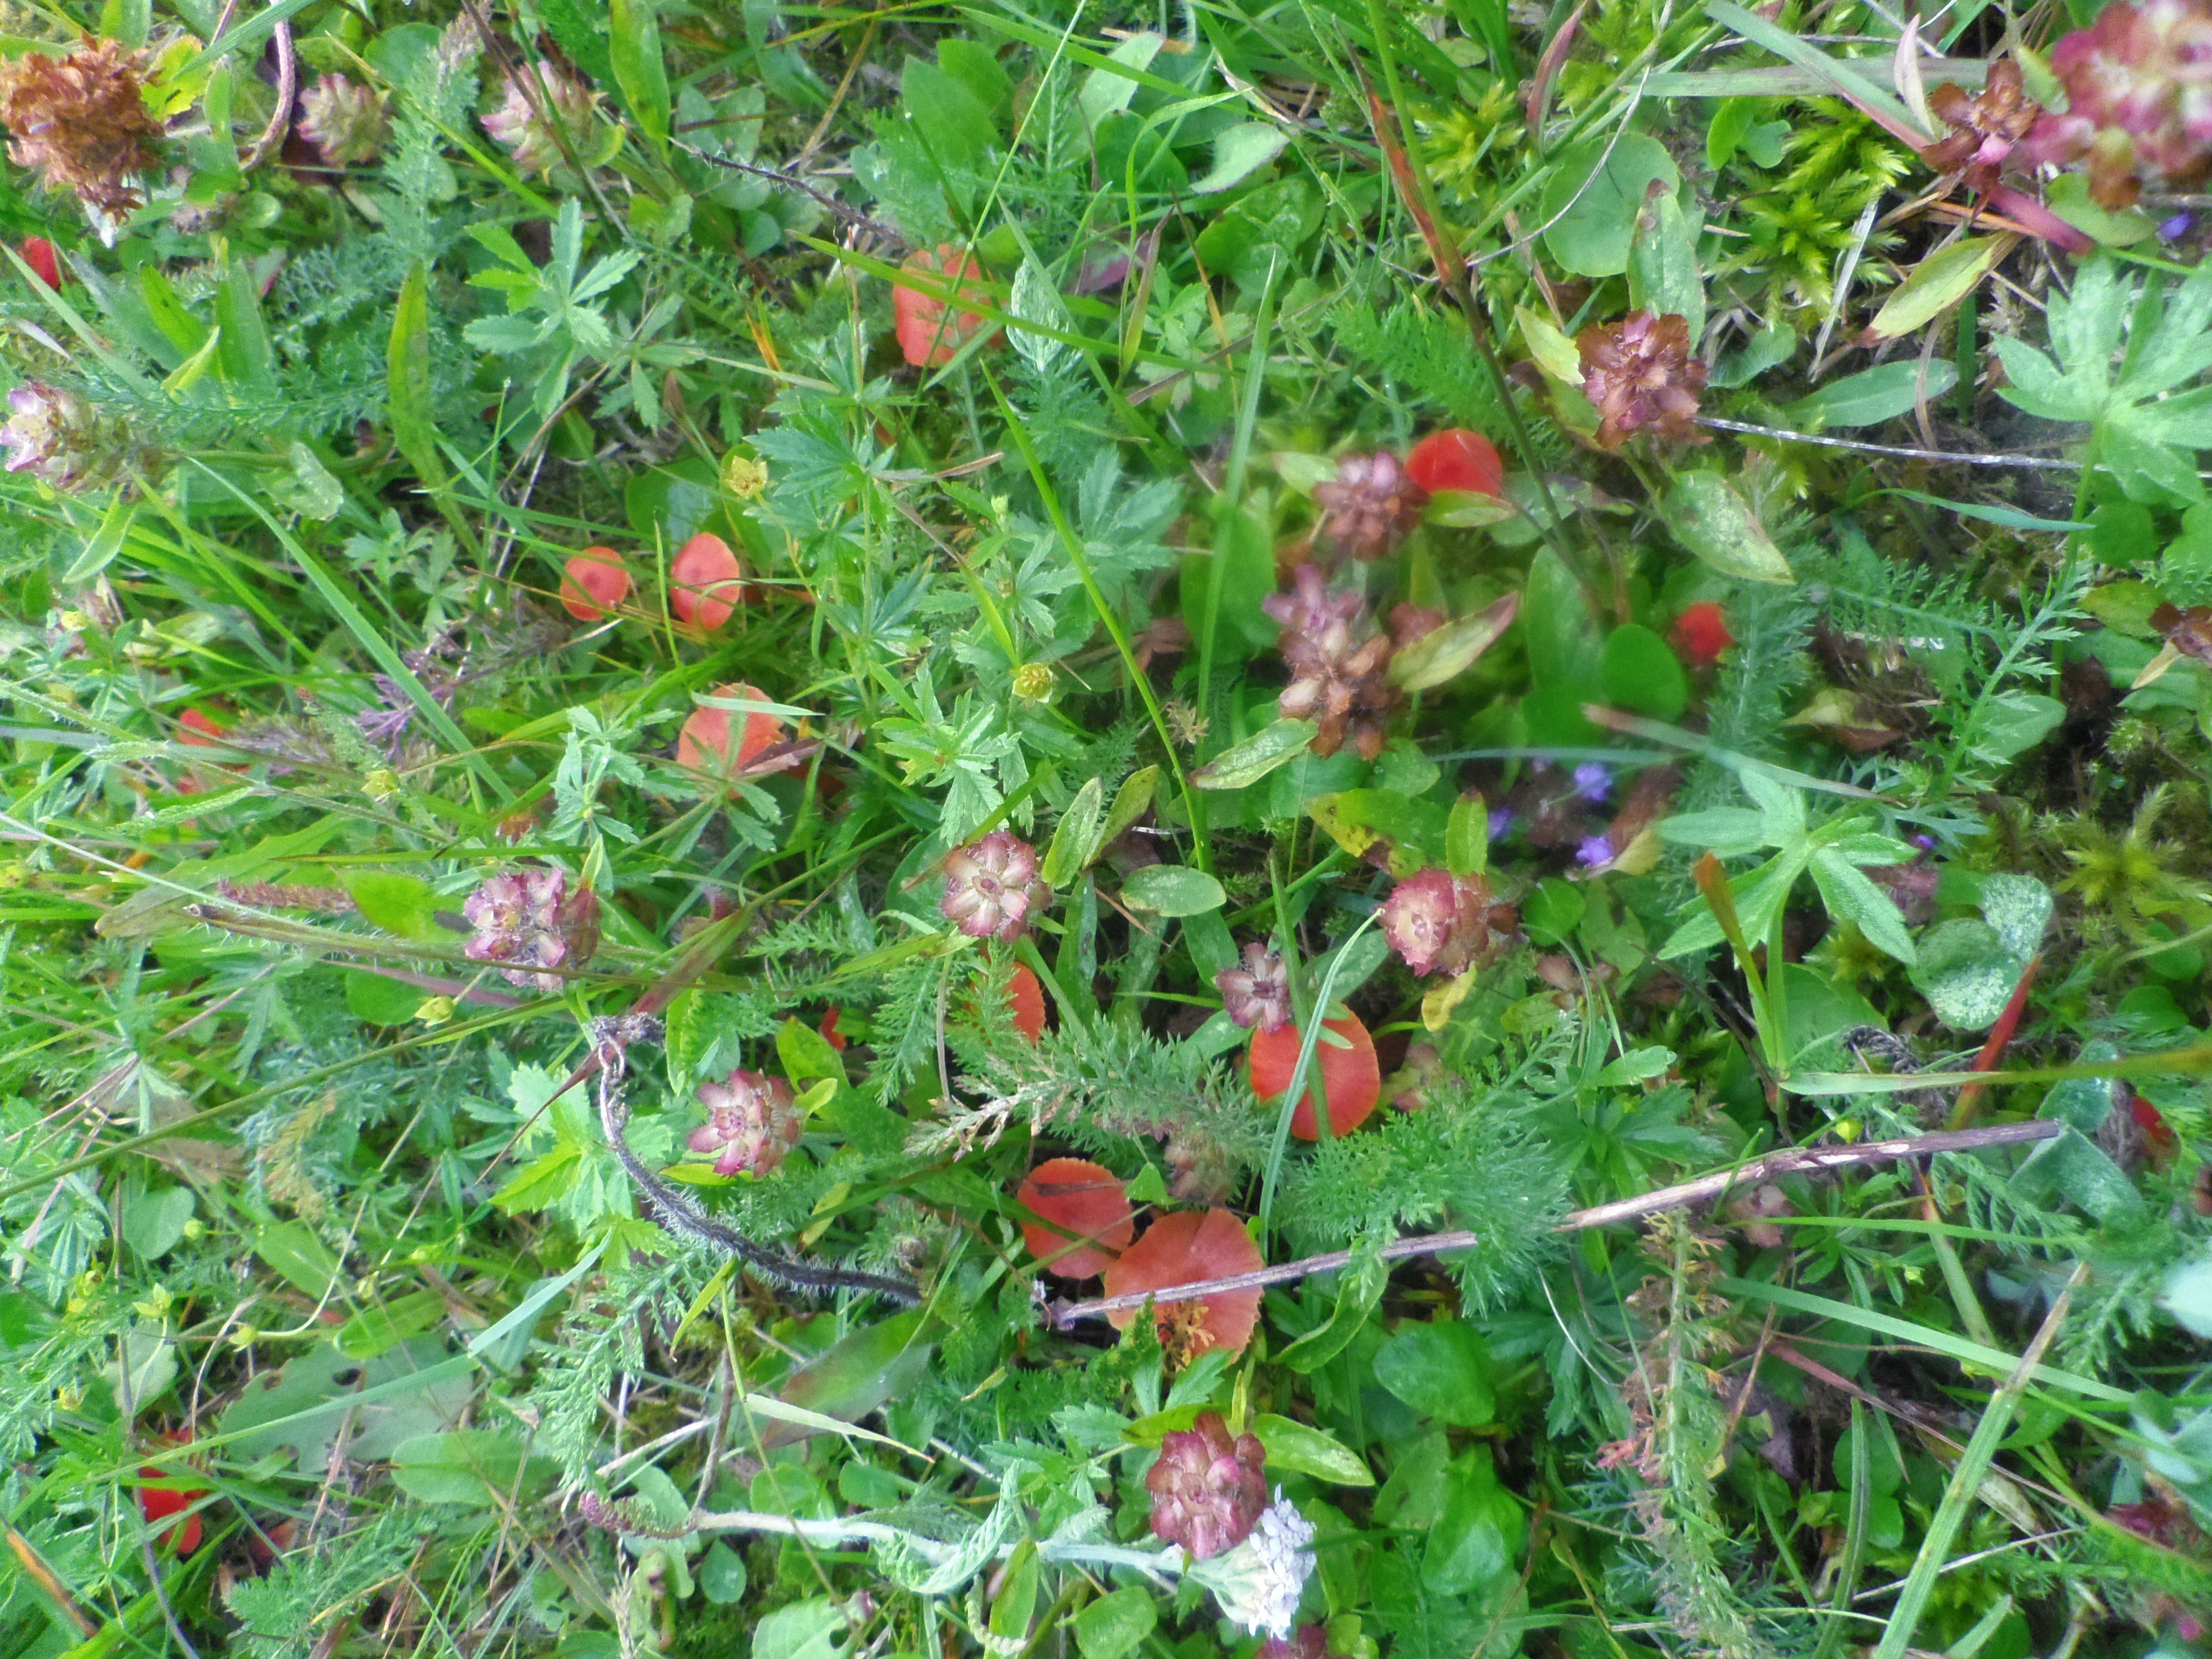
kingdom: Fungi
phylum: Basidiomycota
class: Agaricomycetes
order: Agaricales
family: Hygrophoraceae
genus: Hygrocybe
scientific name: Hygrocybe helobia
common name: Garlic waxcap
